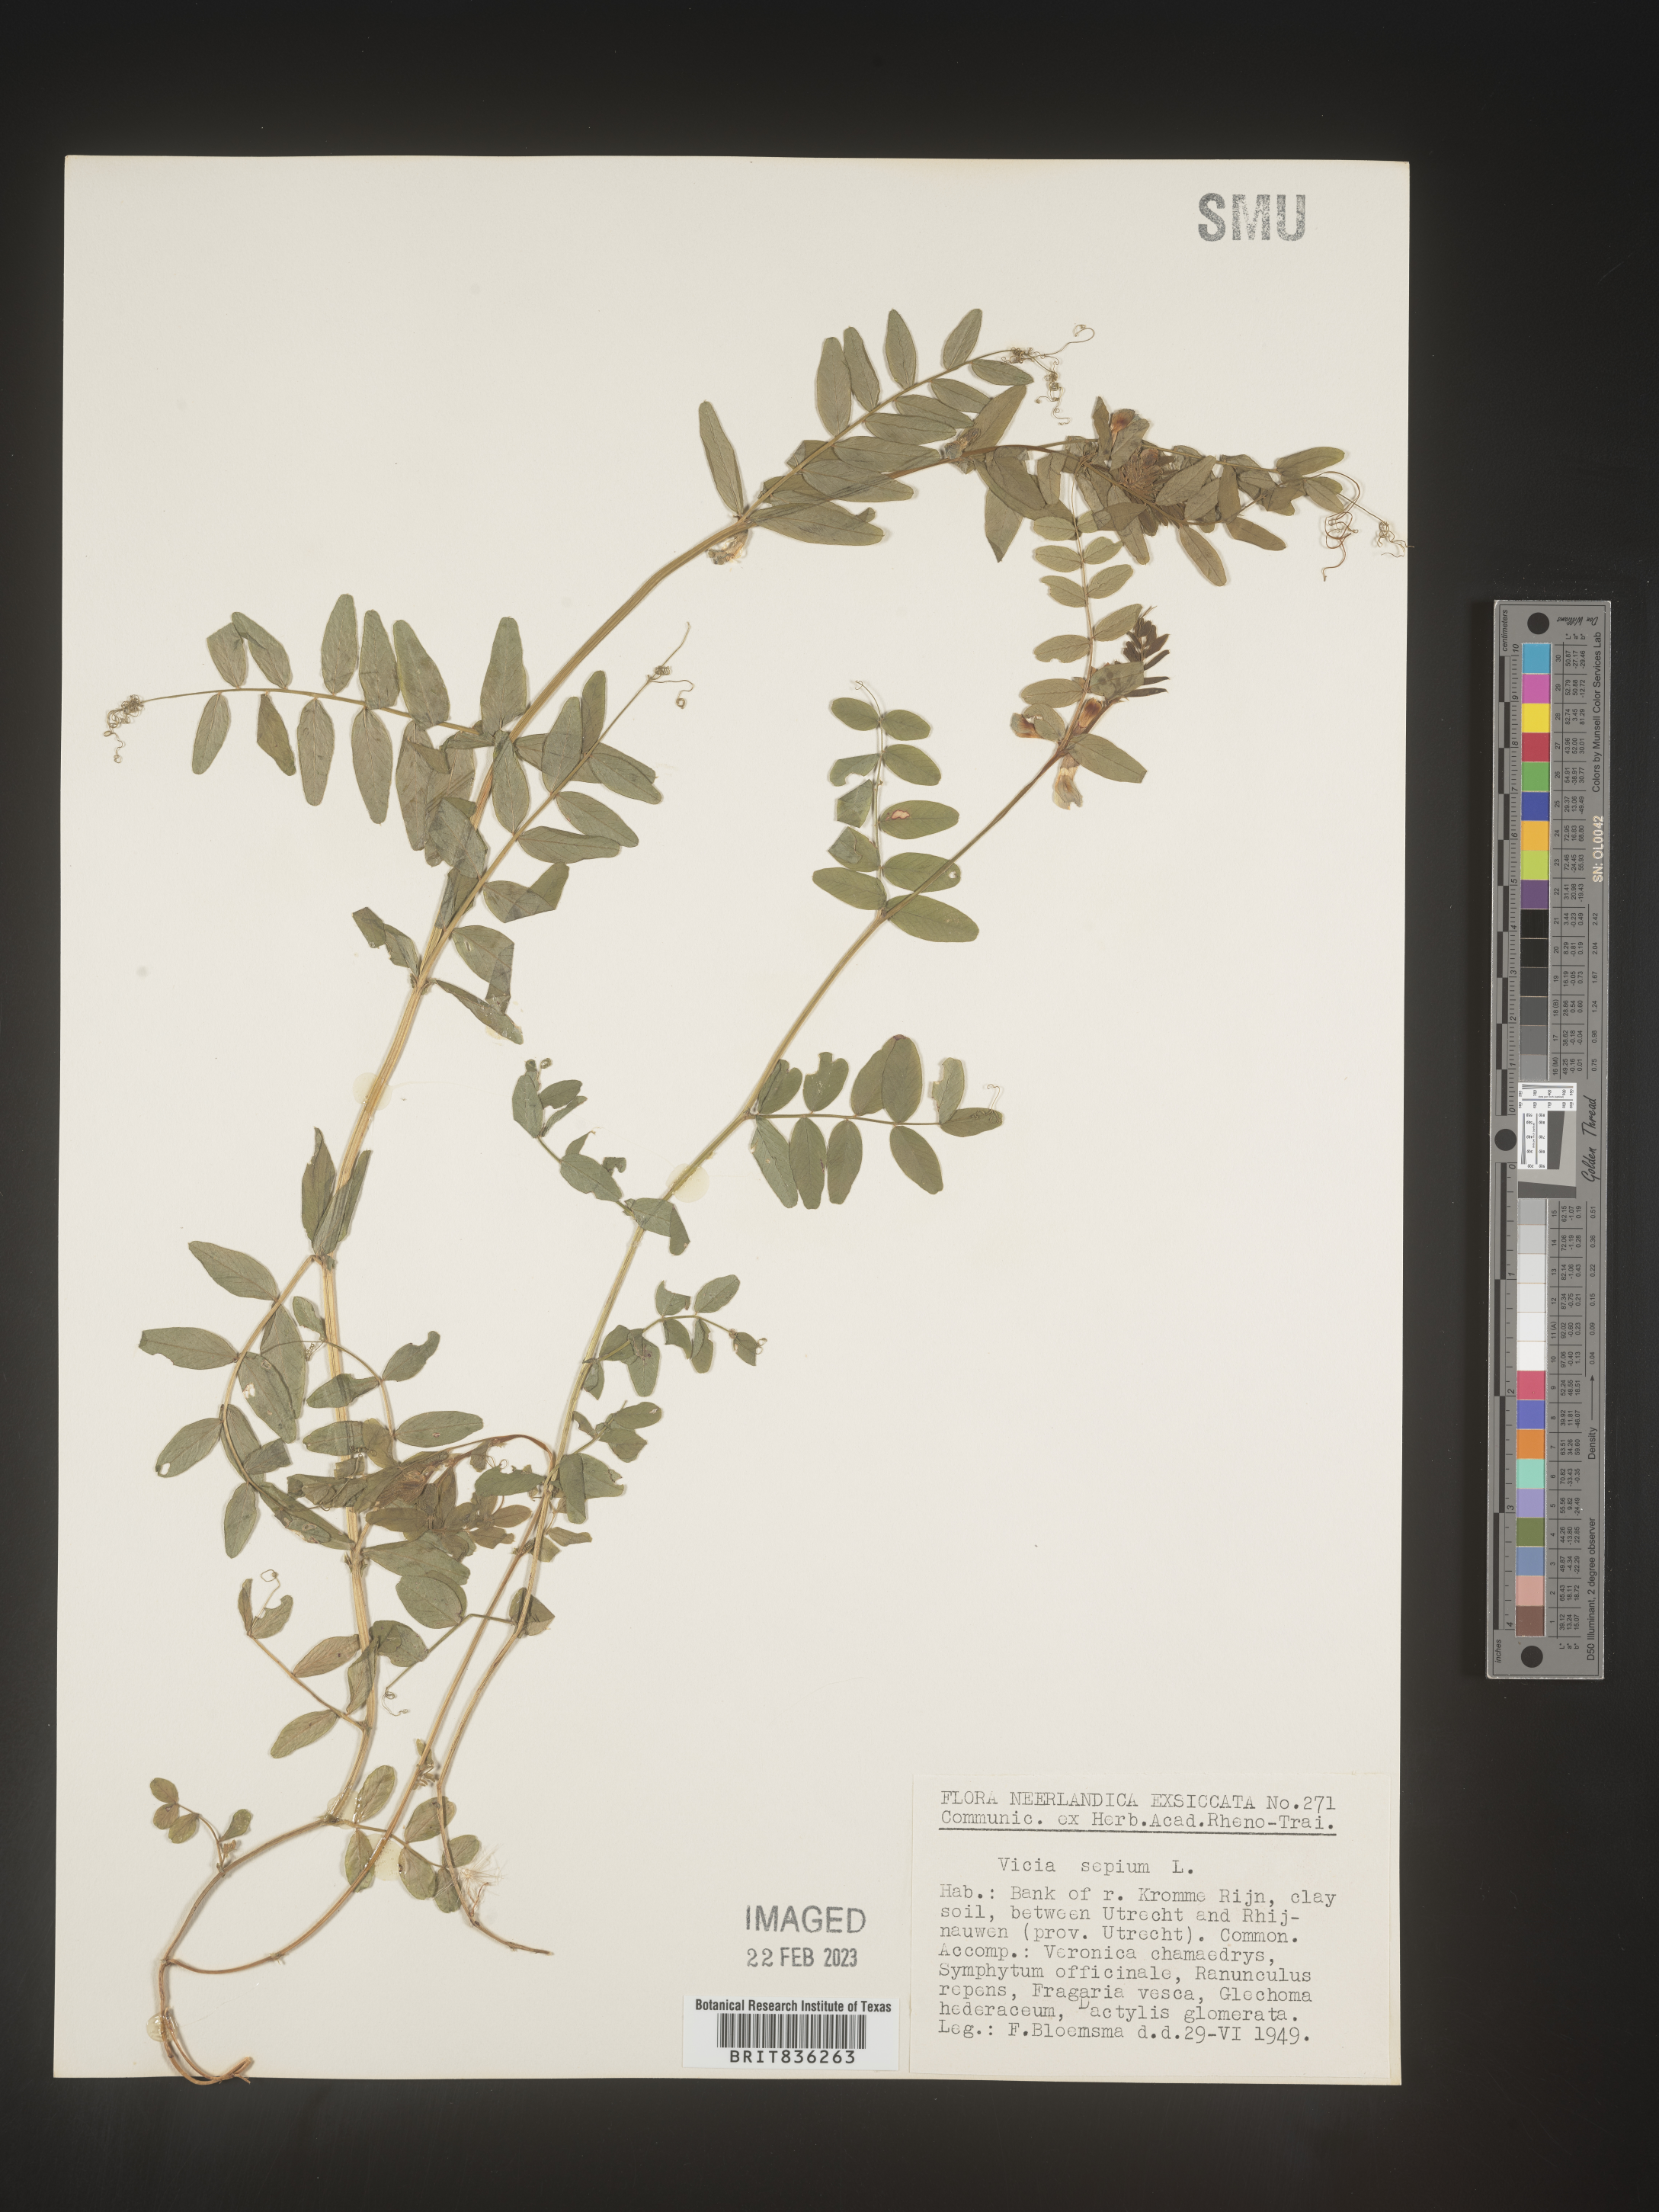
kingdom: Plantae
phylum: Tracheophyta
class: Magnoliopsida
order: Fabales
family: Fabaceae
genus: Vicia
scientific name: Vicia
